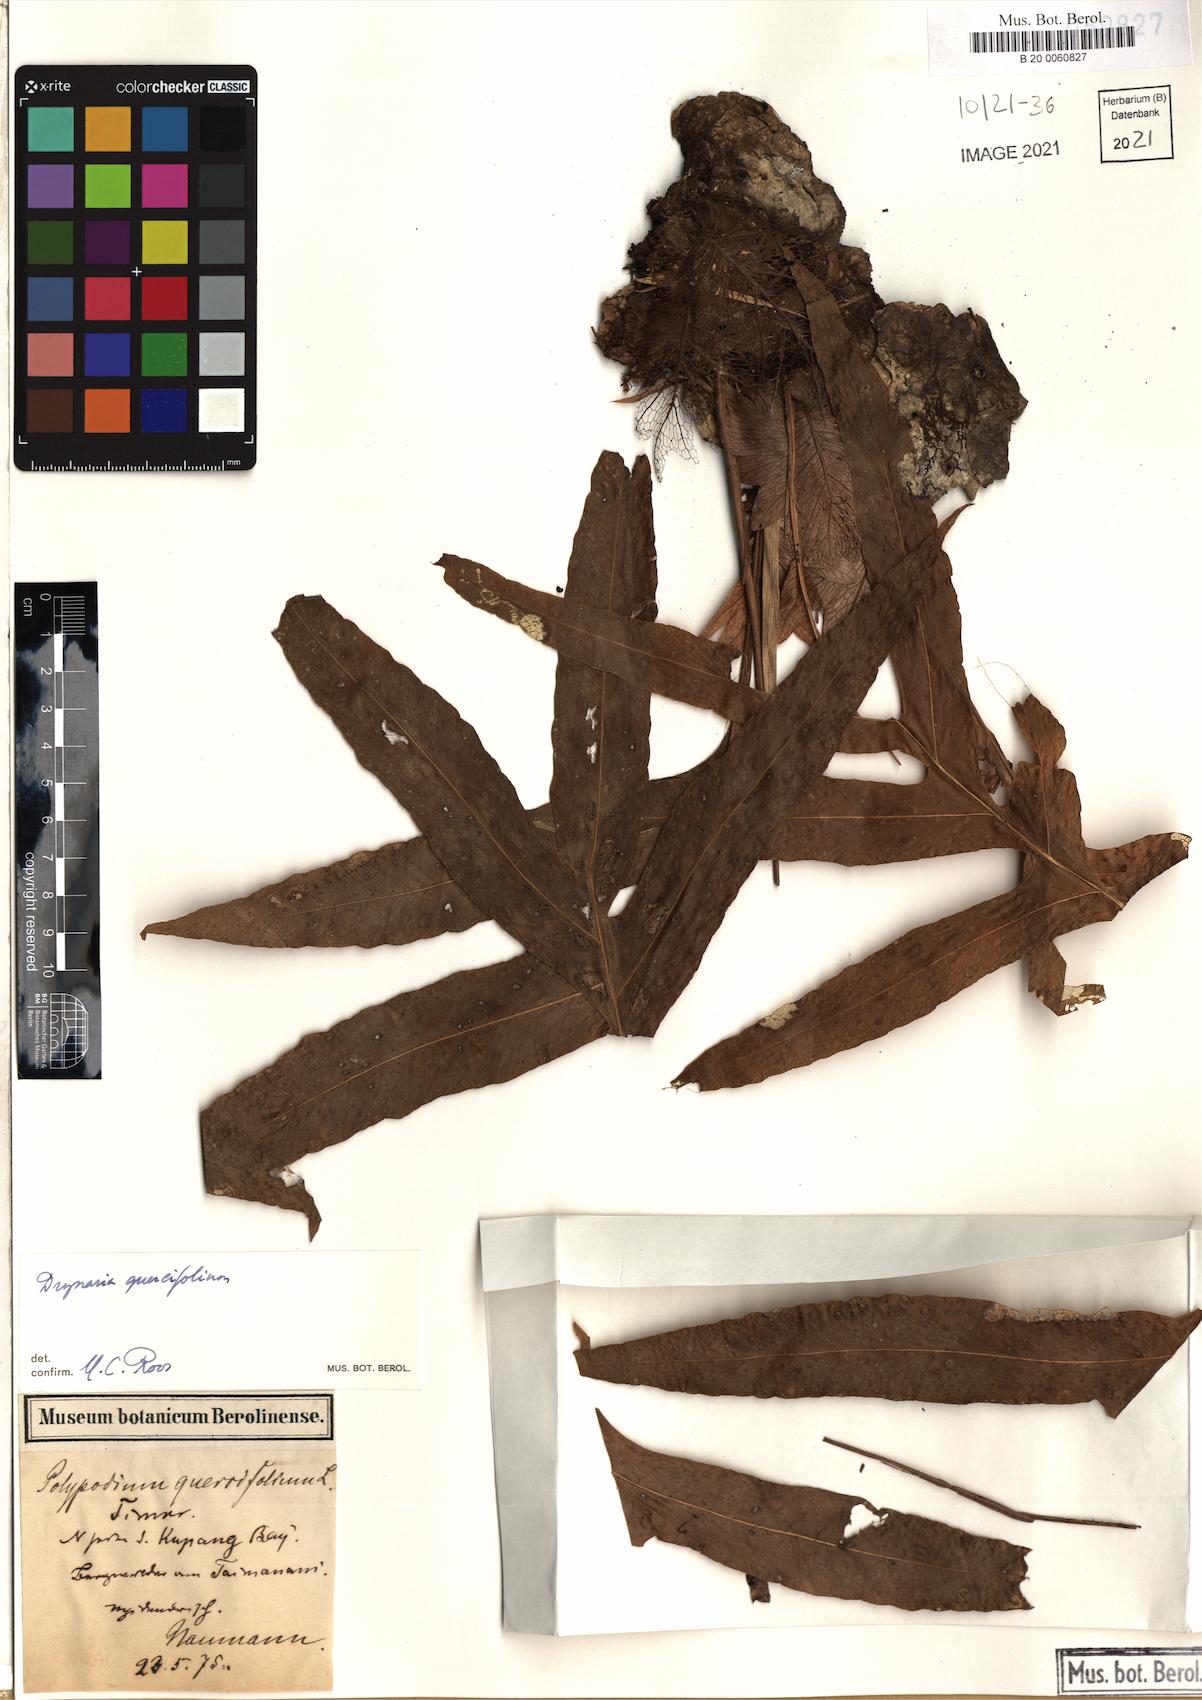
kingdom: Plantae
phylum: Tracheophyta
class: Polypodiopsida
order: Polypodiales
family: Polypodiaceae
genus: Drynaria
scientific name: Drynaria quercifolia
